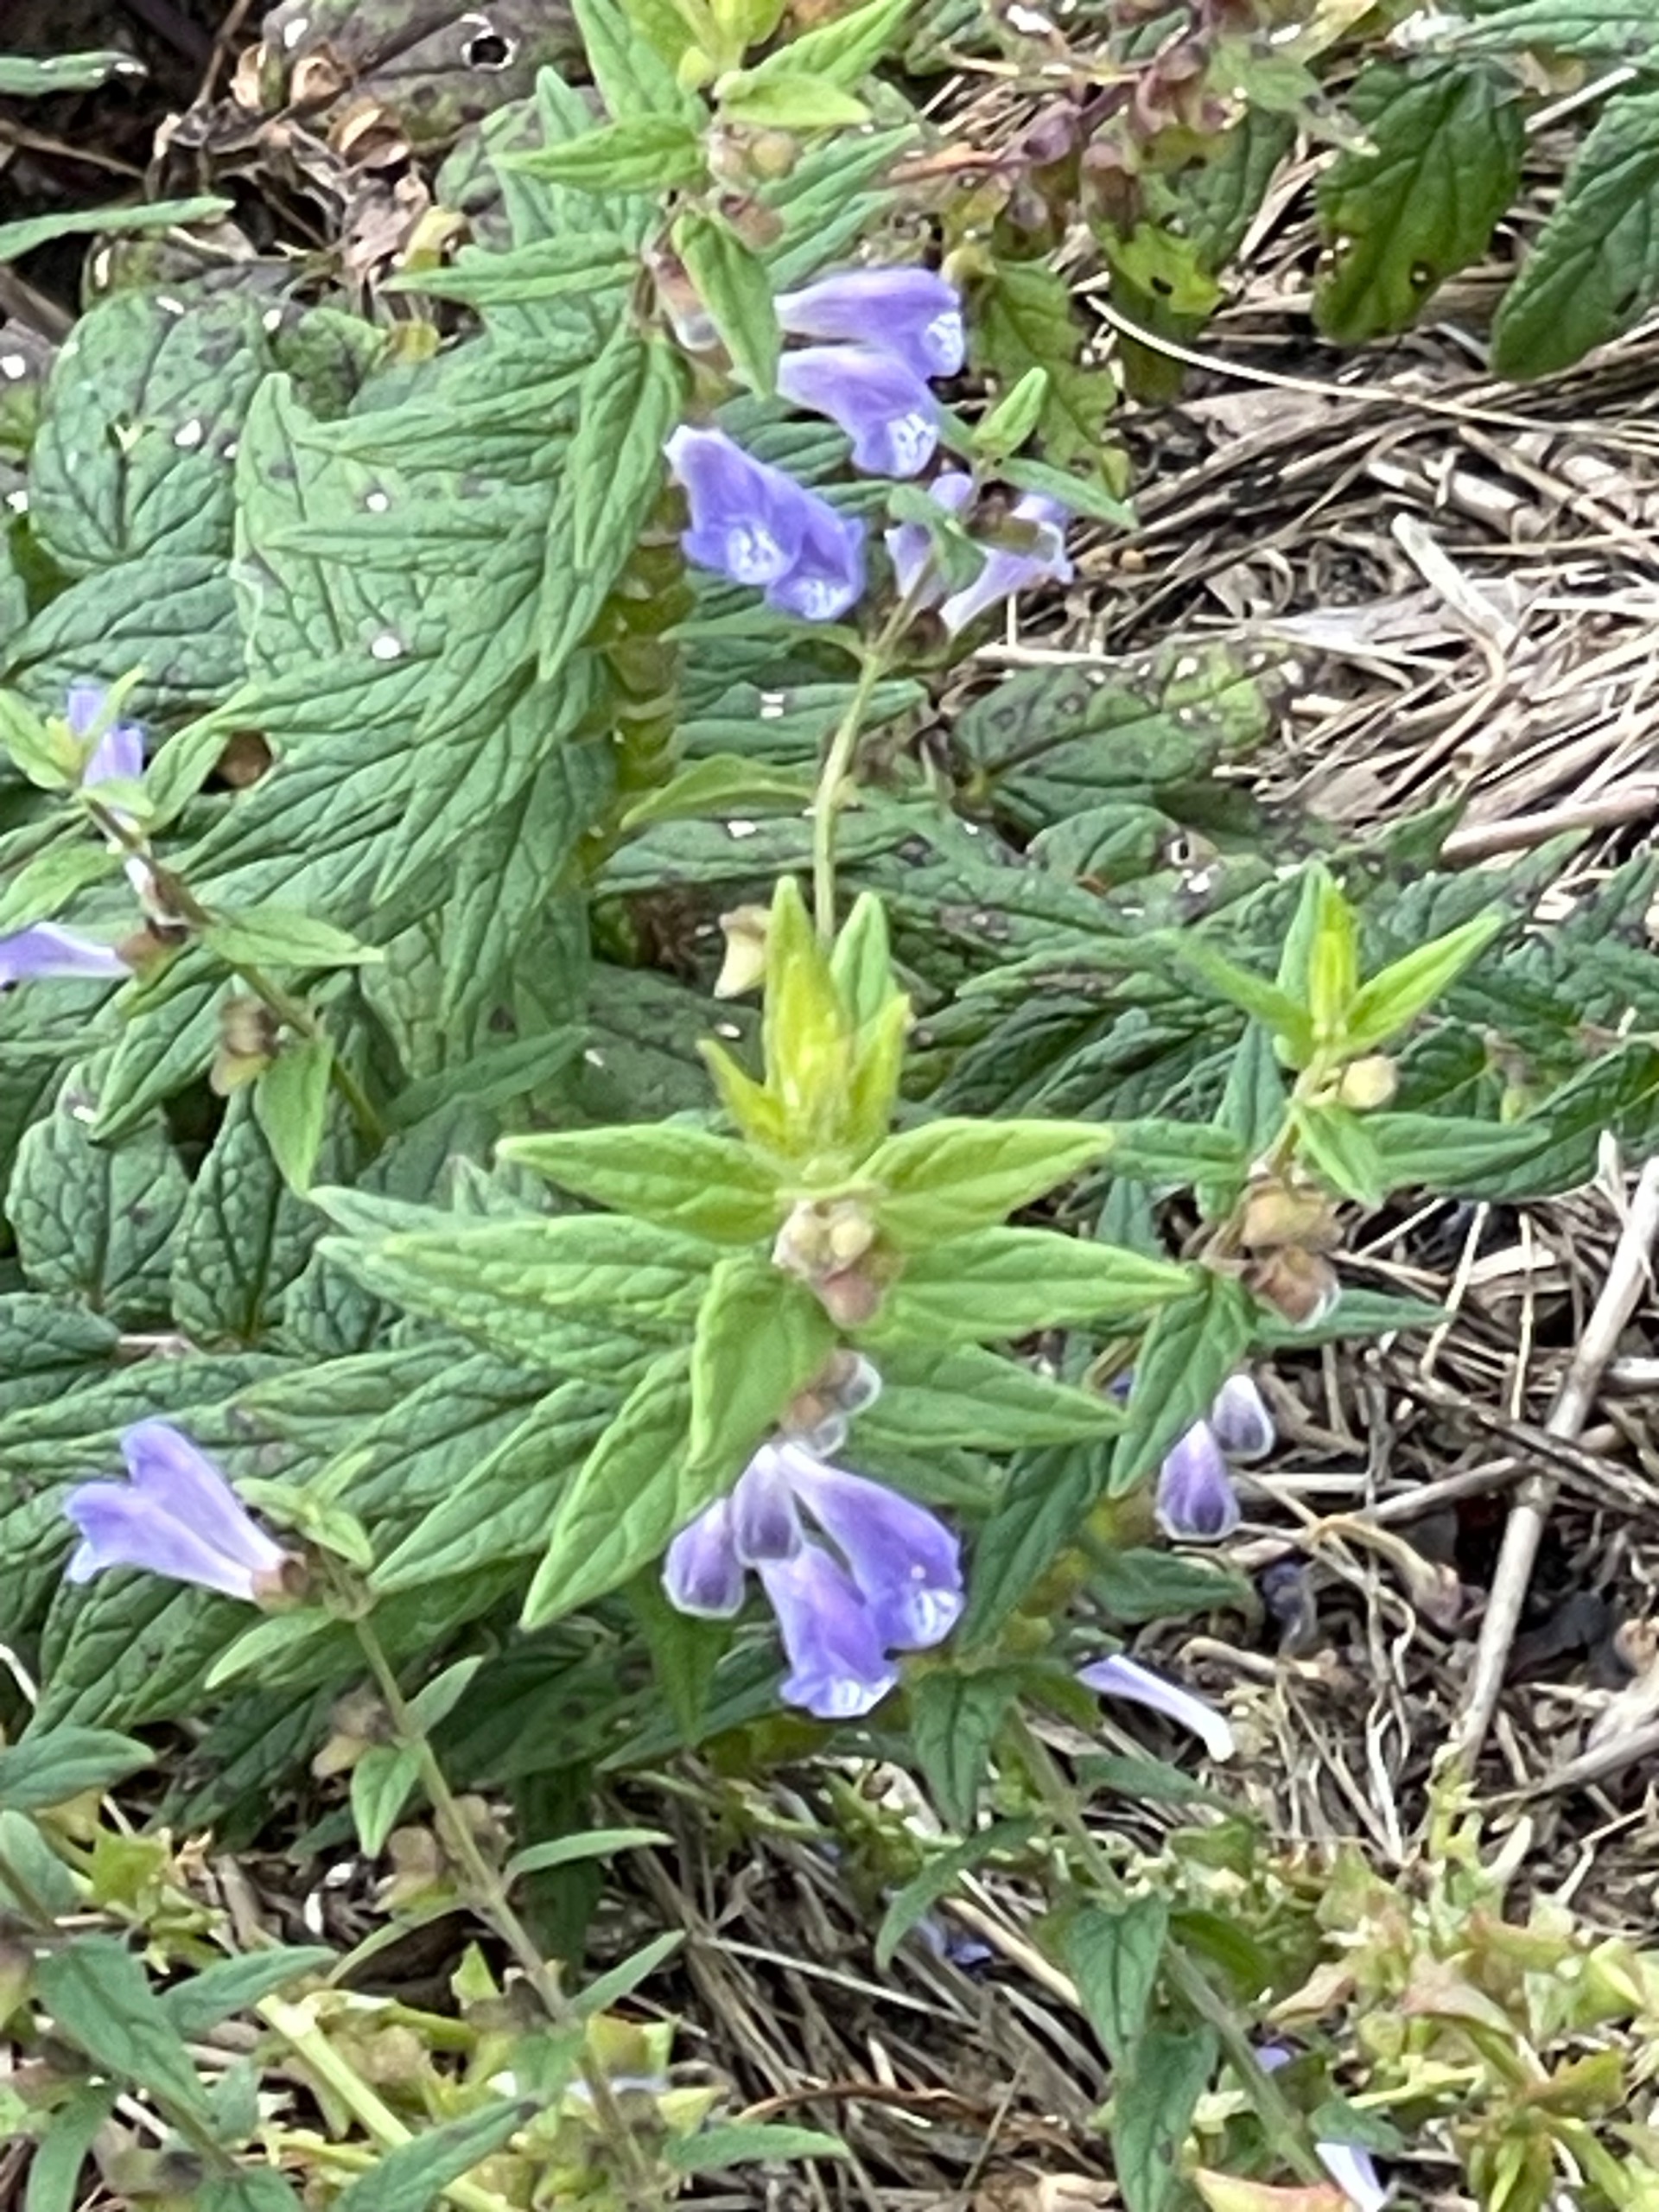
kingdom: Plantae
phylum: Tracheophyta
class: Magnoliopsida
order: Lamiales
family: Lamiaceae
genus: Scutellaria
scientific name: Scutellaria galericulata
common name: Almindelig skjolddrager
